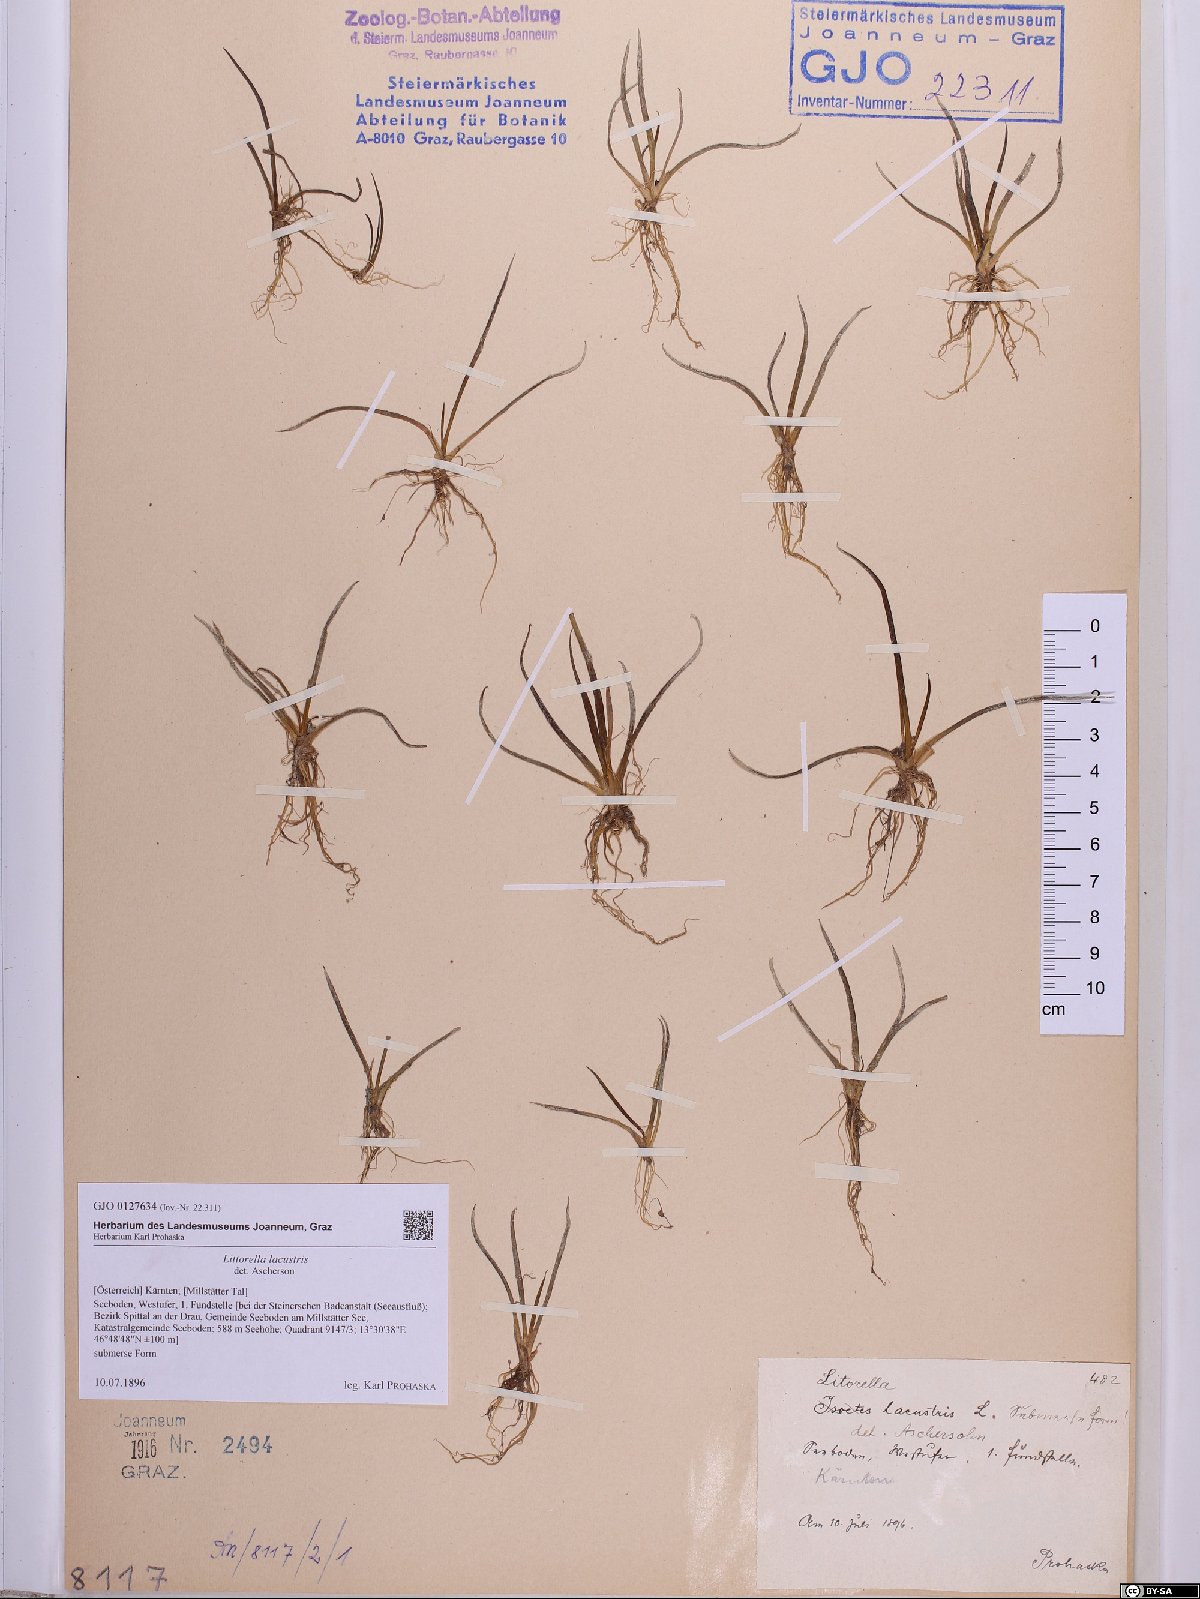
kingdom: Plantae
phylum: Tracheophyta
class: Magnoliopsida
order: Lamiales
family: Plantaginaceae
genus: Littorella
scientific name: Littorella uniflora
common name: Shoreweed
